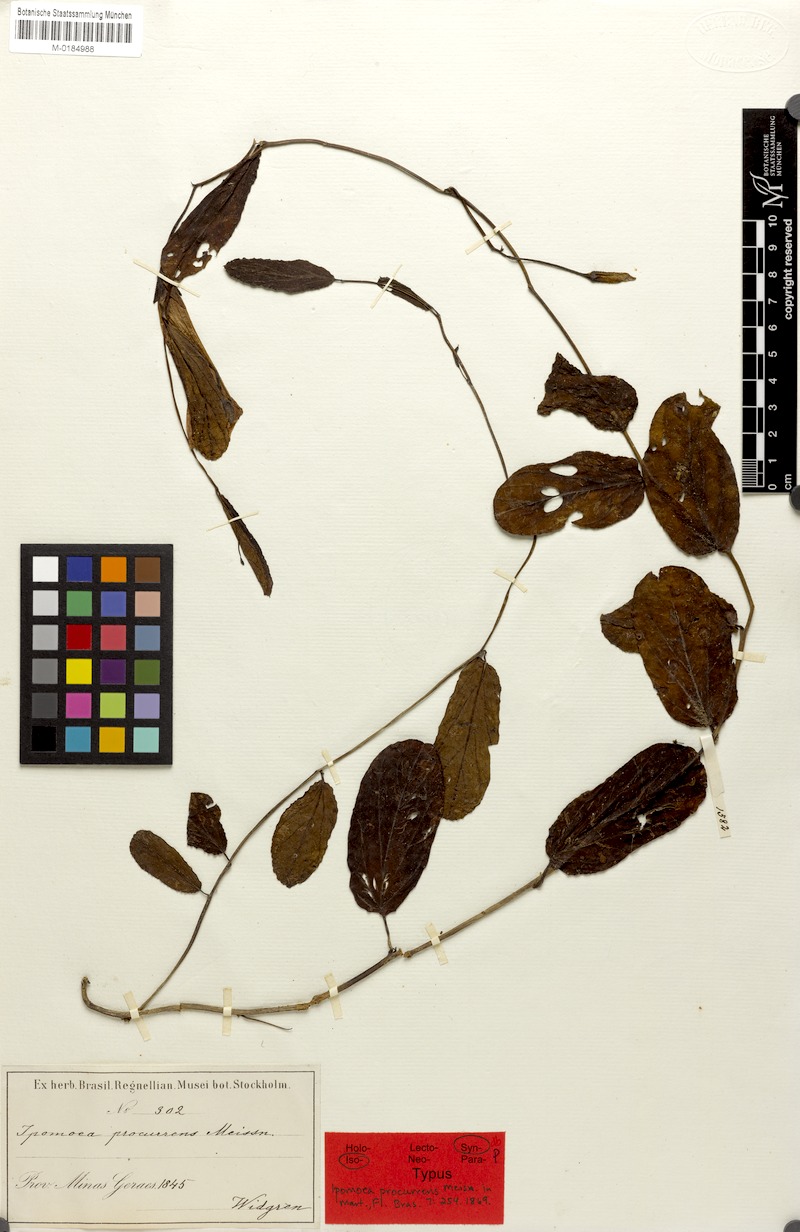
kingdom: Plantae
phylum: Tracheophyta
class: Magnoliopsida
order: Solanales
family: Convolvulaceae
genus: Ipomoea
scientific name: Ipomoea procurrens
